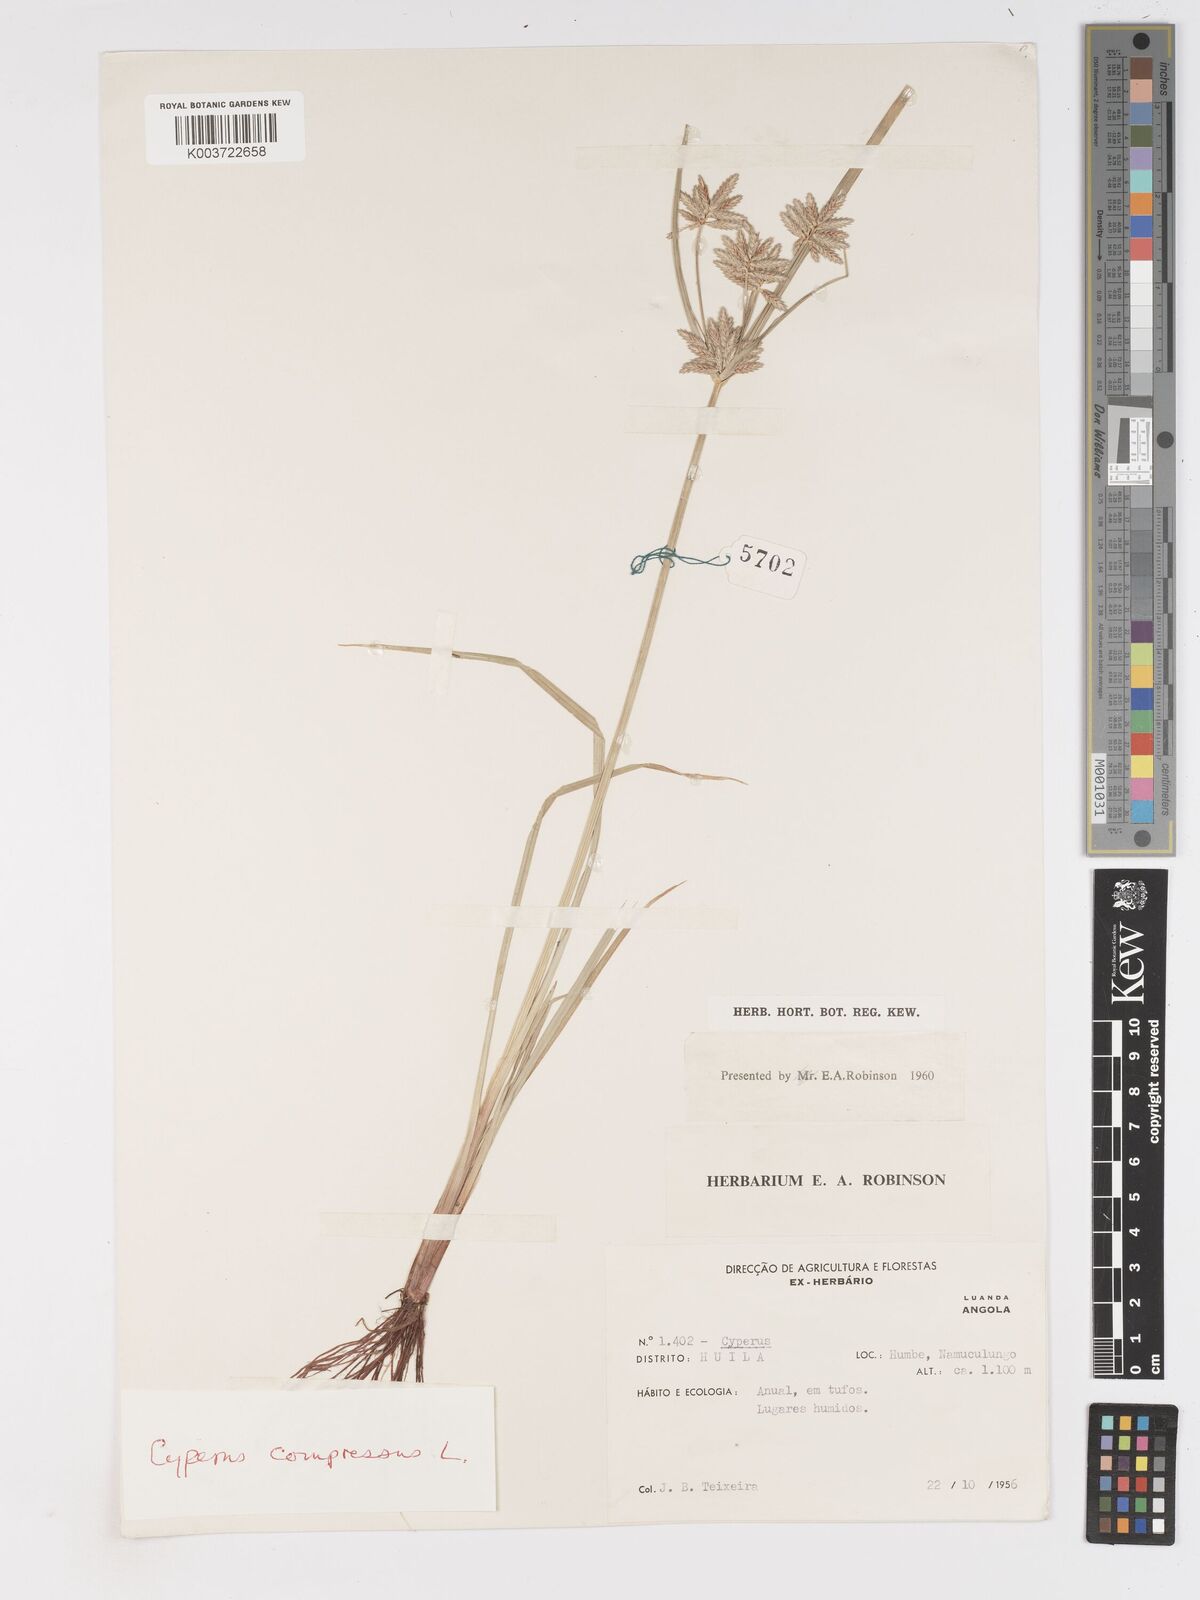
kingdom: Plantae
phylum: Tracheophyta
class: Liliopsida
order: Poales
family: Cyperaceae
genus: Cyperus
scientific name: Cyperus compressus
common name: Poorland flatsedge
